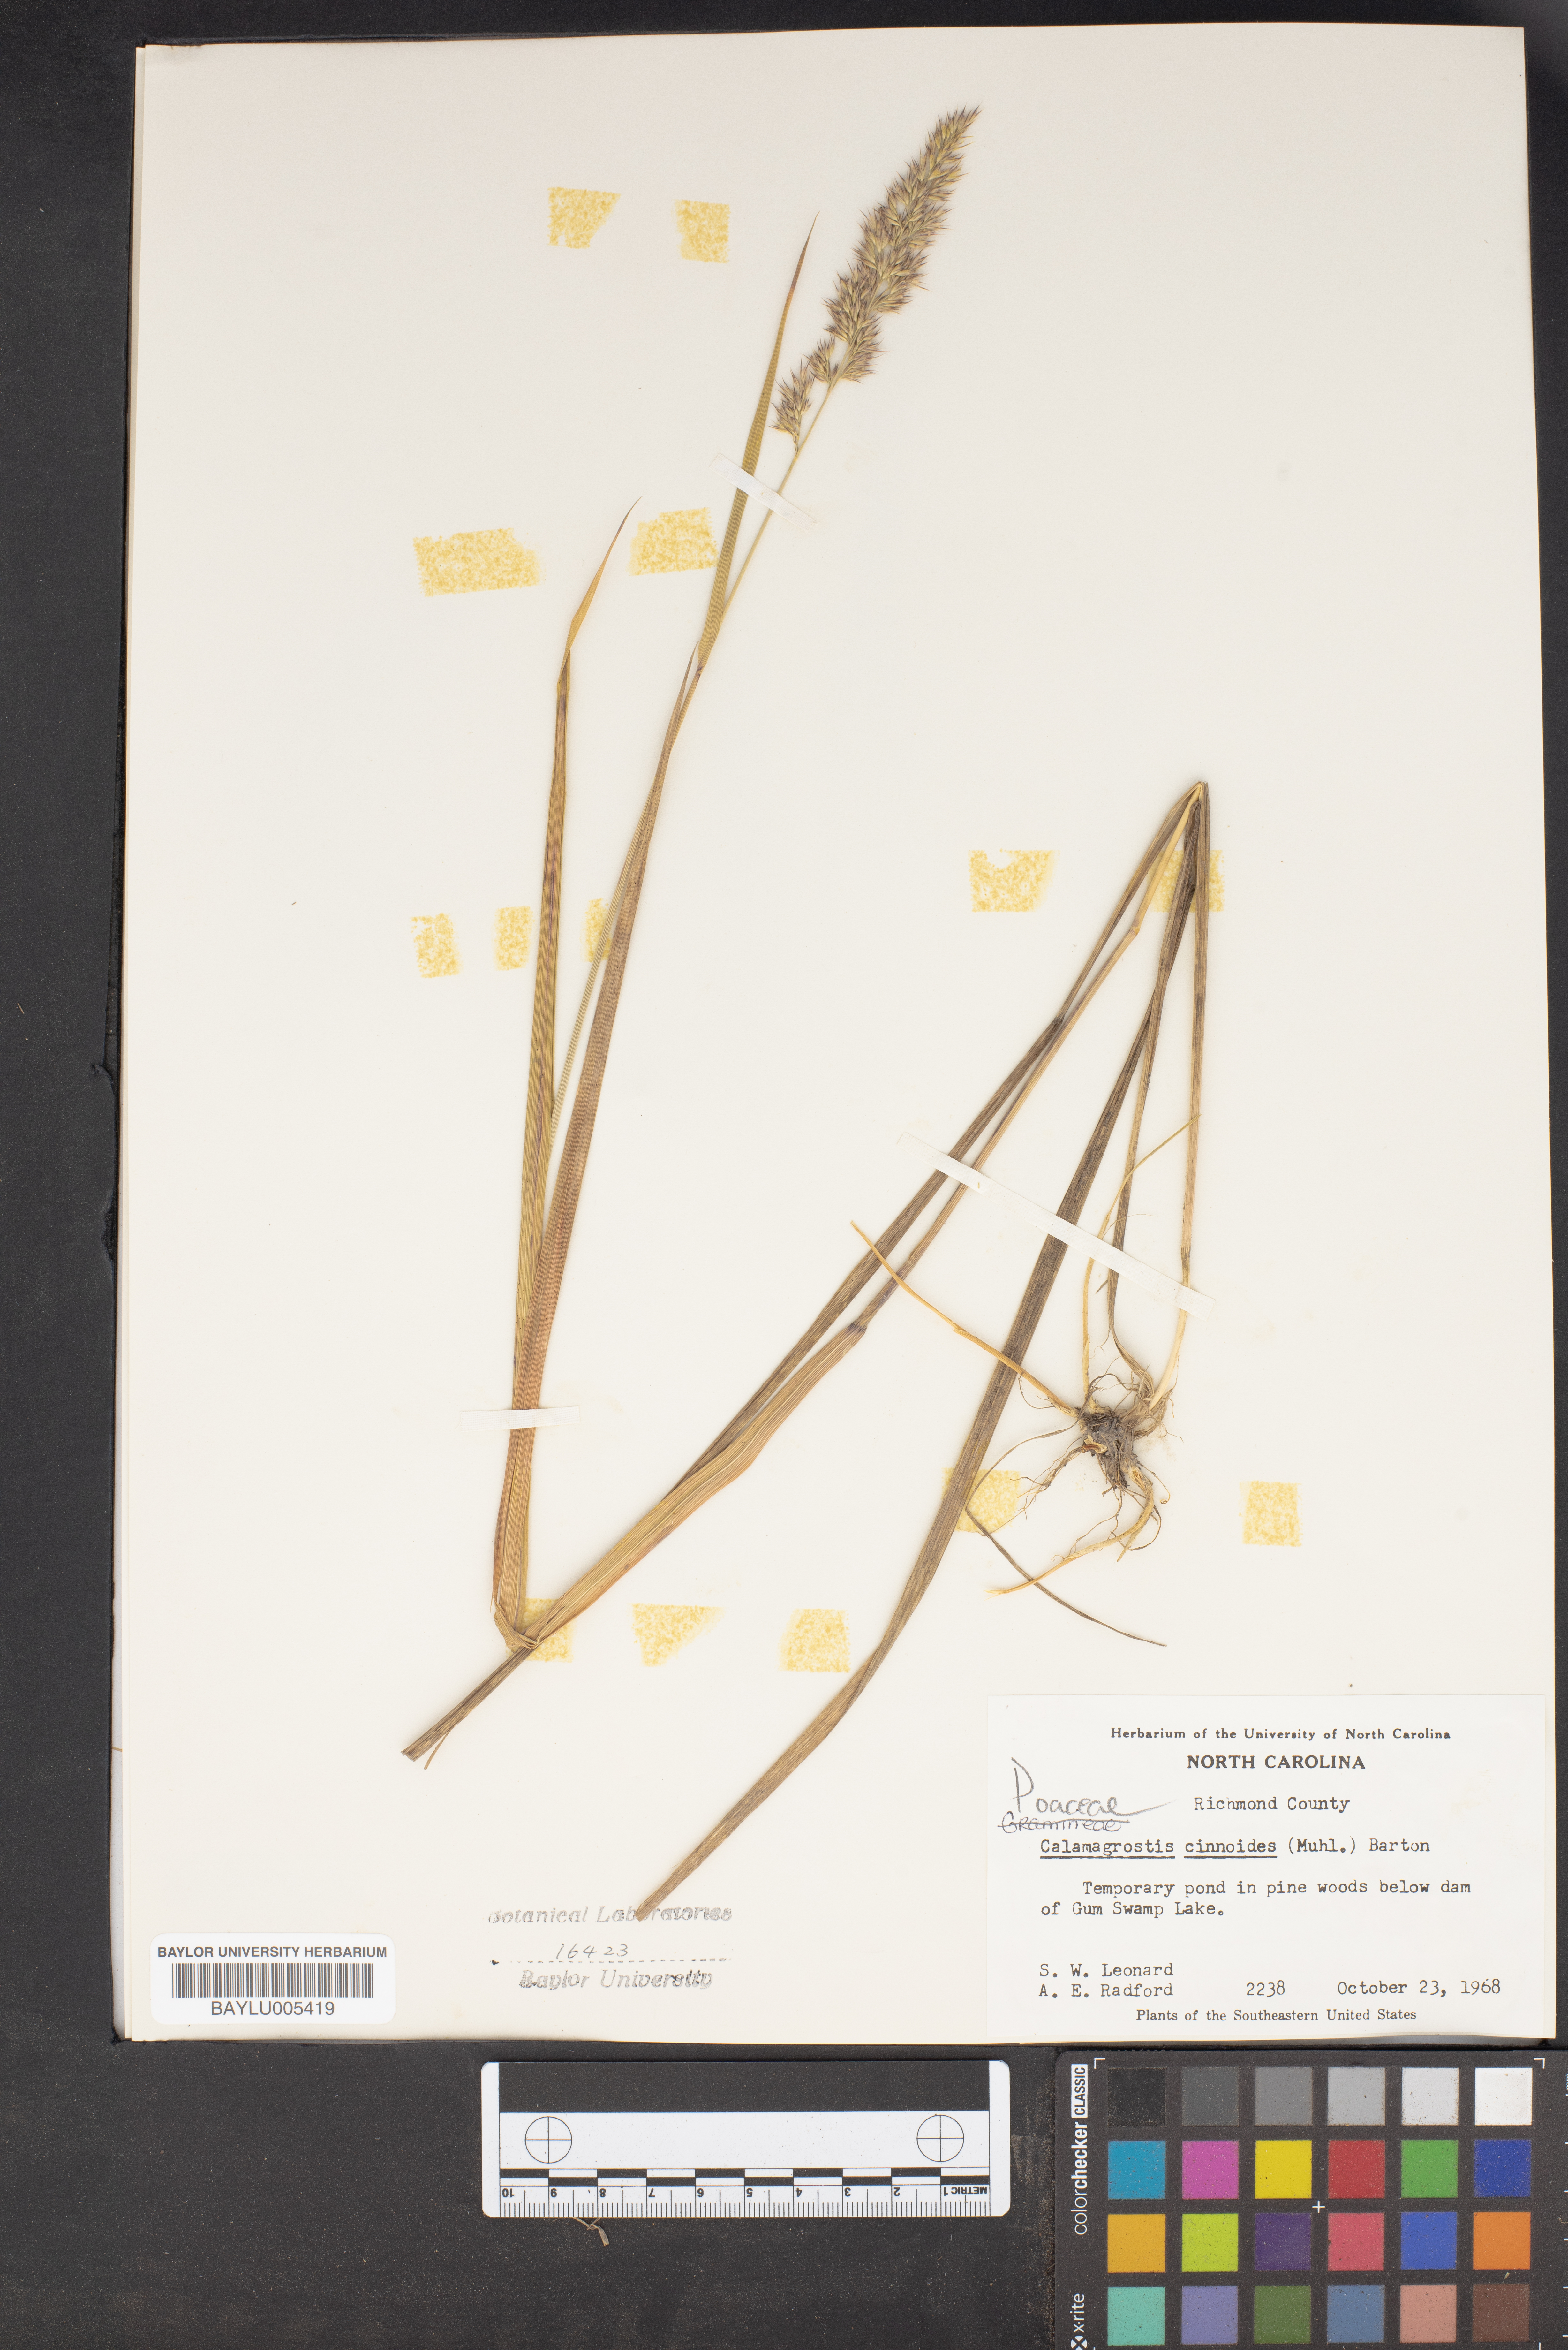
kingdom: Plantae
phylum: Tracheophyta
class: Liliopsida
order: Poales
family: Poaceae
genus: Calamagrostis
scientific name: Calamagrostis canadensis
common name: Canada bluejoint
